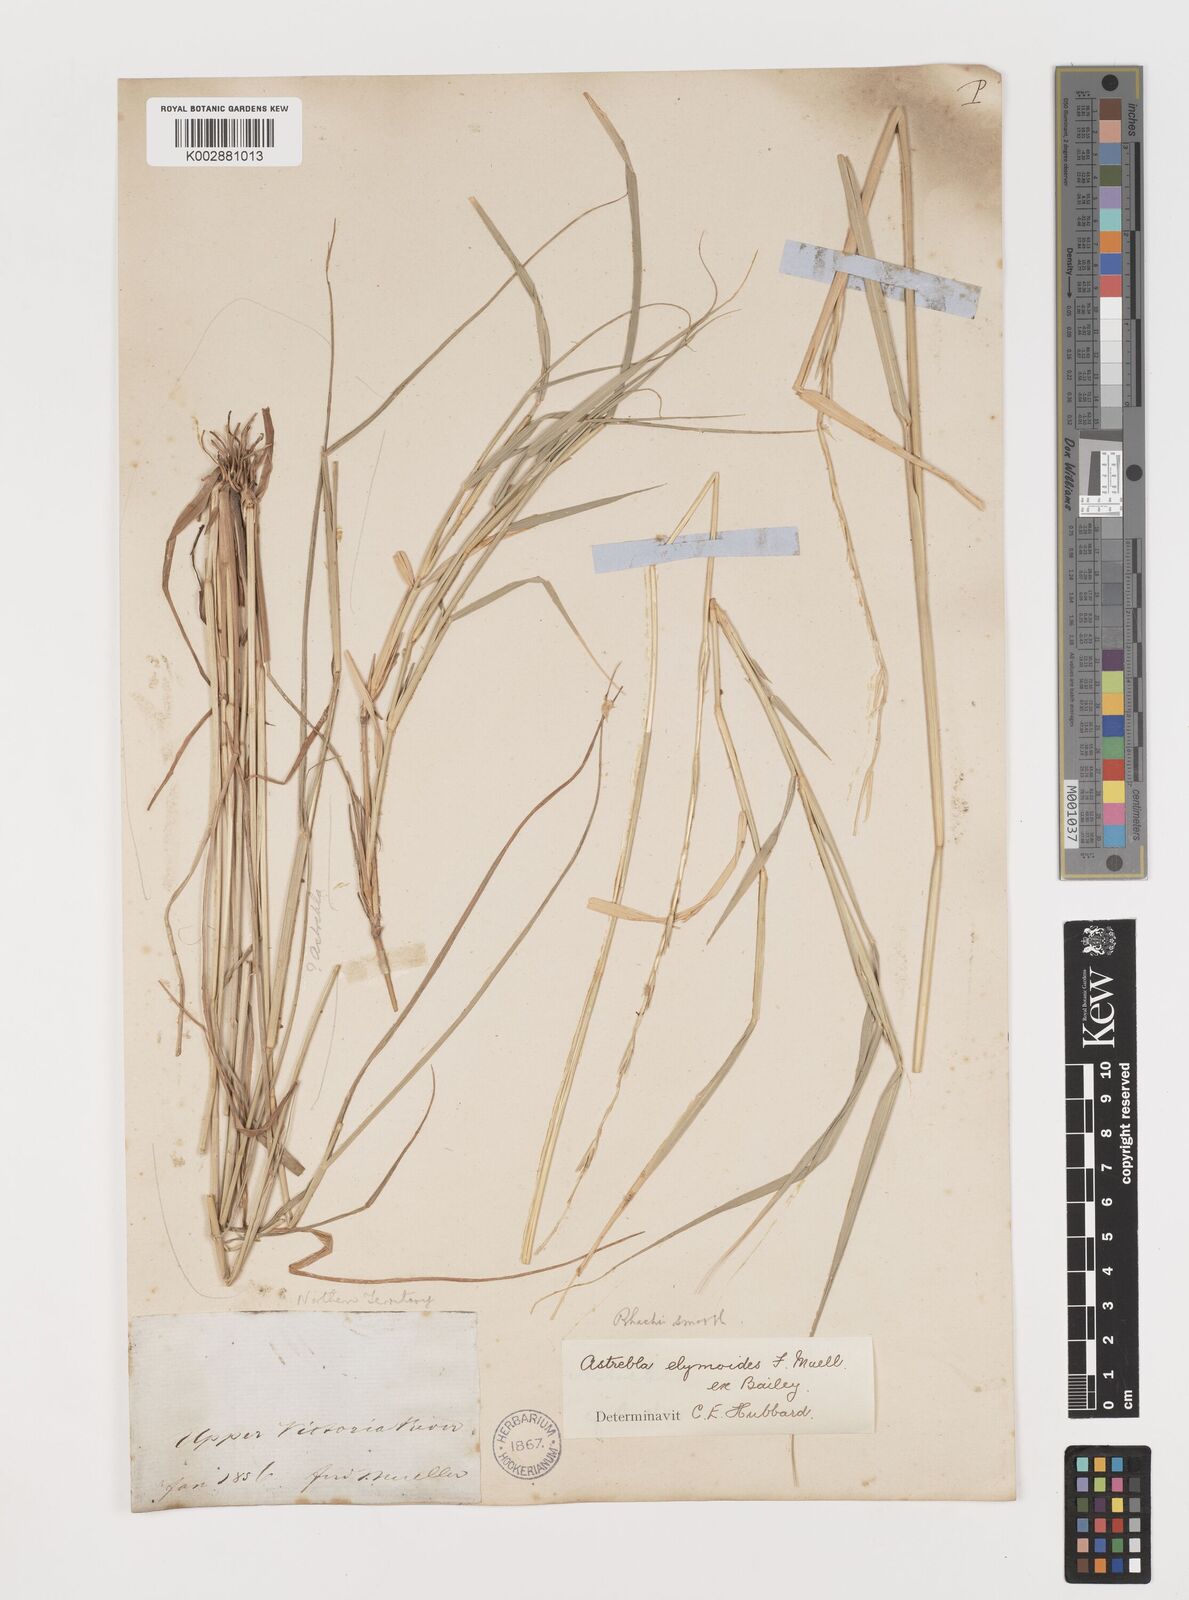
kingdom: Plantae
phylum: Tracheophyta
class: Liliopsida
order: Poales
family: Poaceae
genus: Astrebla
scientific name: Astrebla elymoides
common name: Hoop mitchell grass
